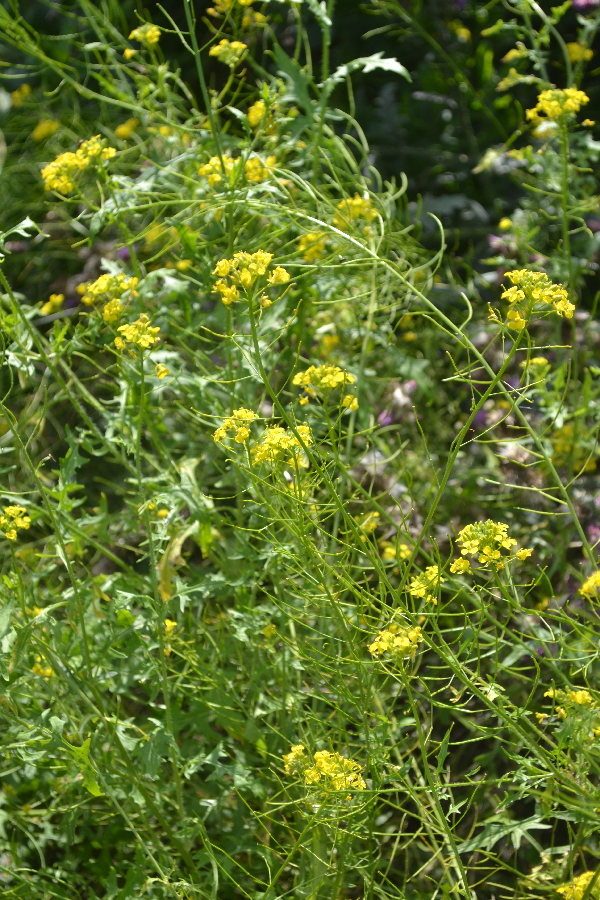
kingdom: Plantae
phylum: Tracheophyta
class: Magnoliopsida
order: Brassicales
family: Brassicaceae
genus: Barbarea
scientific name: Barbarea vulgaris
